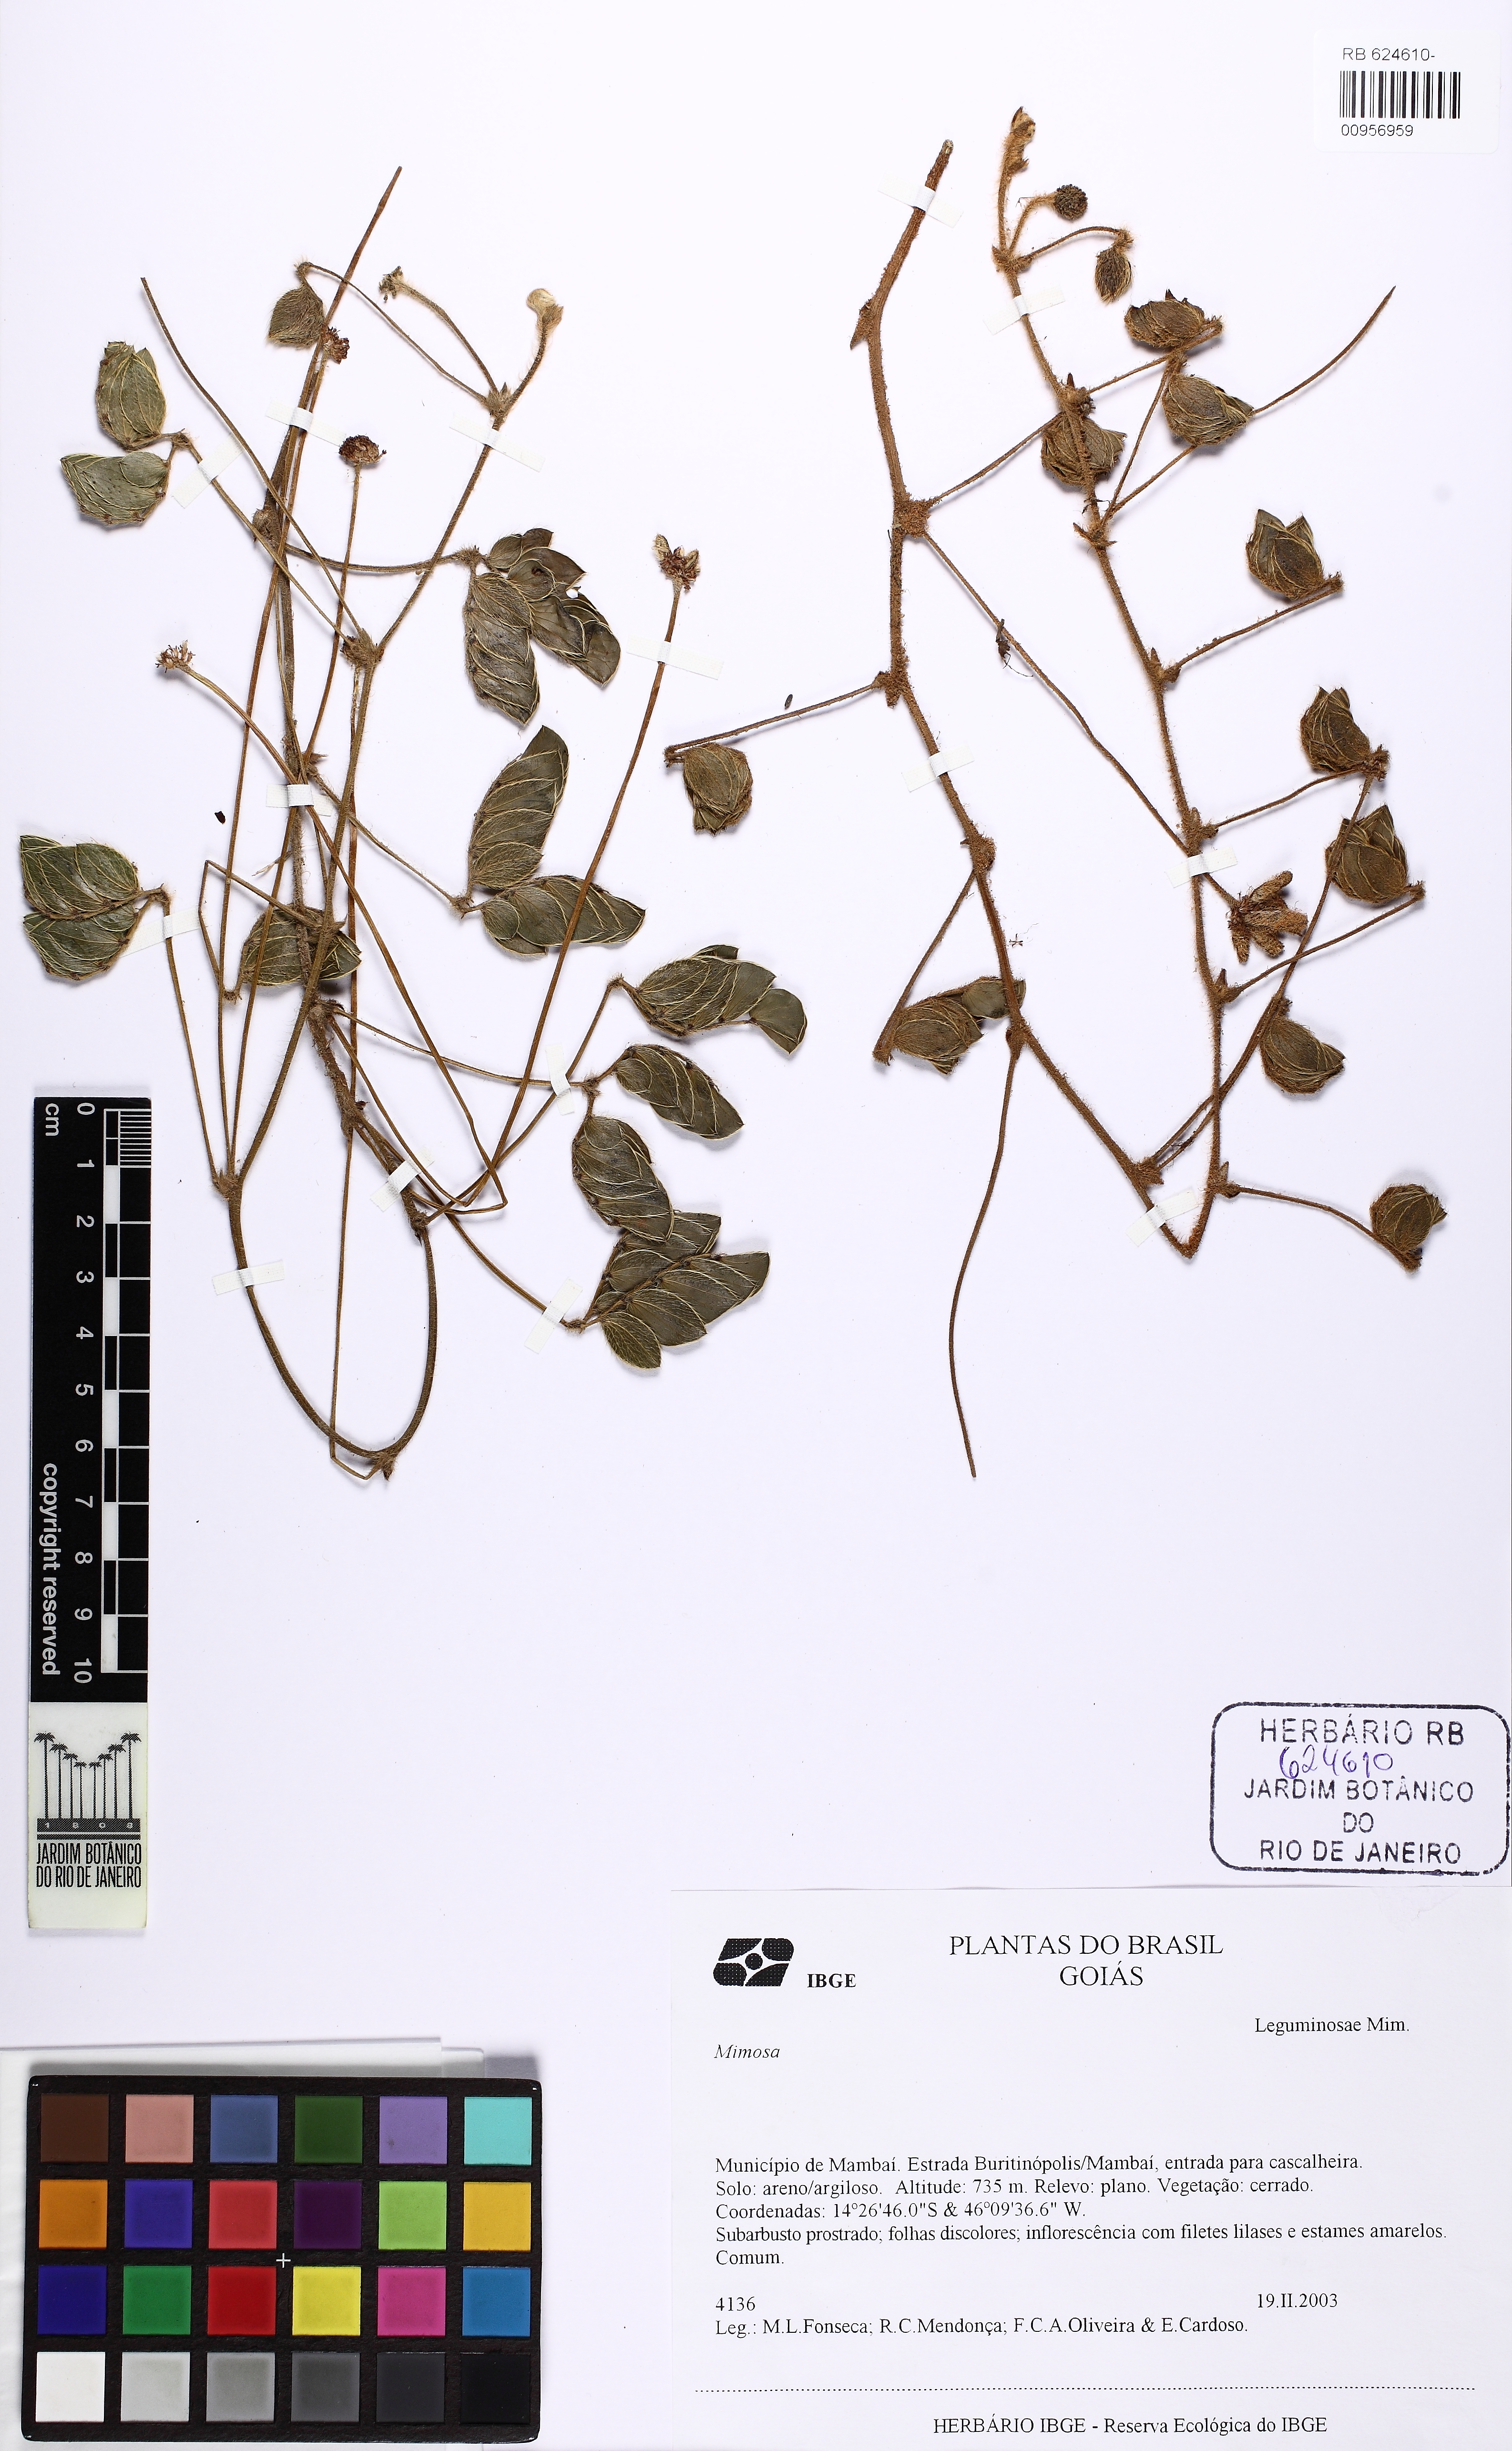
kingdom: Plantae
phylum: Tracheophyta
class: Magnoliopsida
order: Fabales
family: Fabaceae
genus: Mimosa
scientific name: Mimosa
